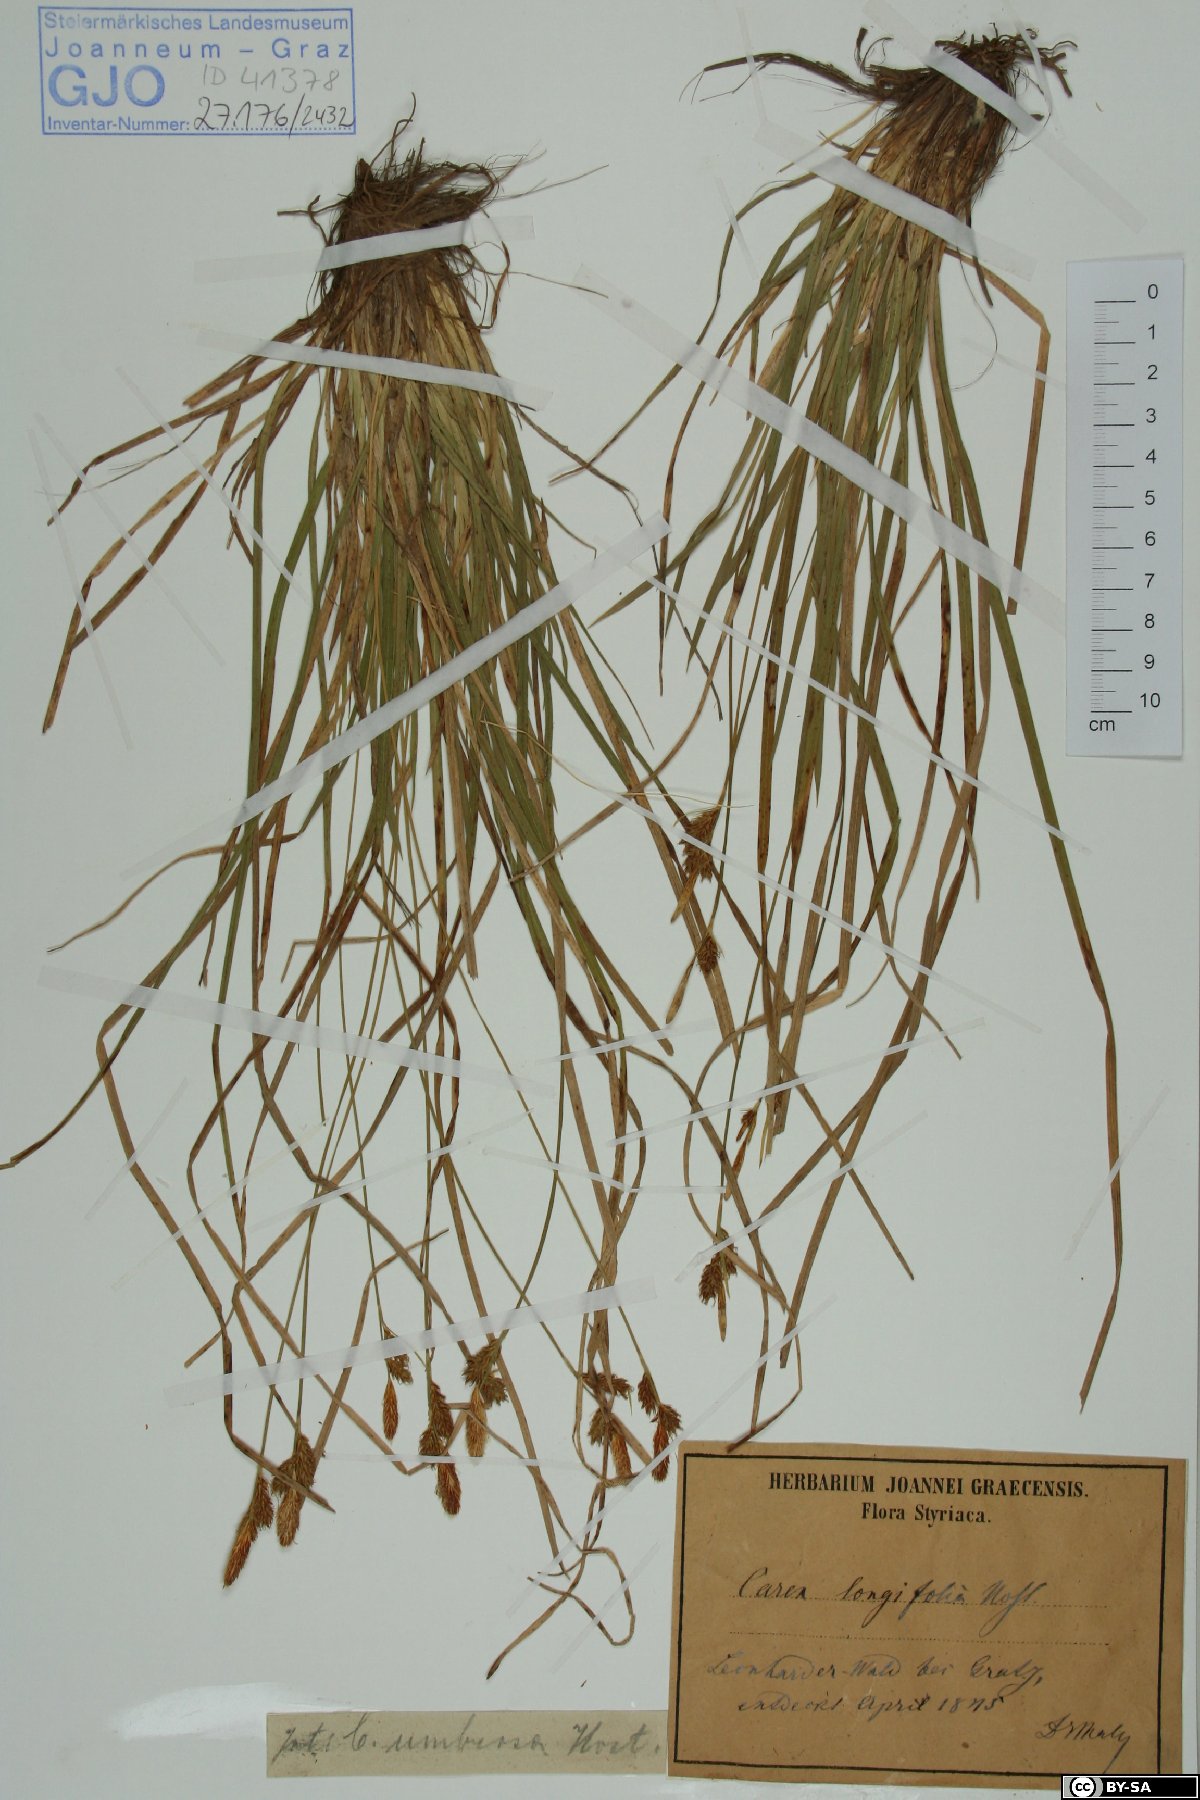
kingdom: Plantae
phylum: Tracheophyta
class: Liliopsida
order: Poales
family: Cyperaceae
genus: Carex
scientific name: Carex umbrosa
